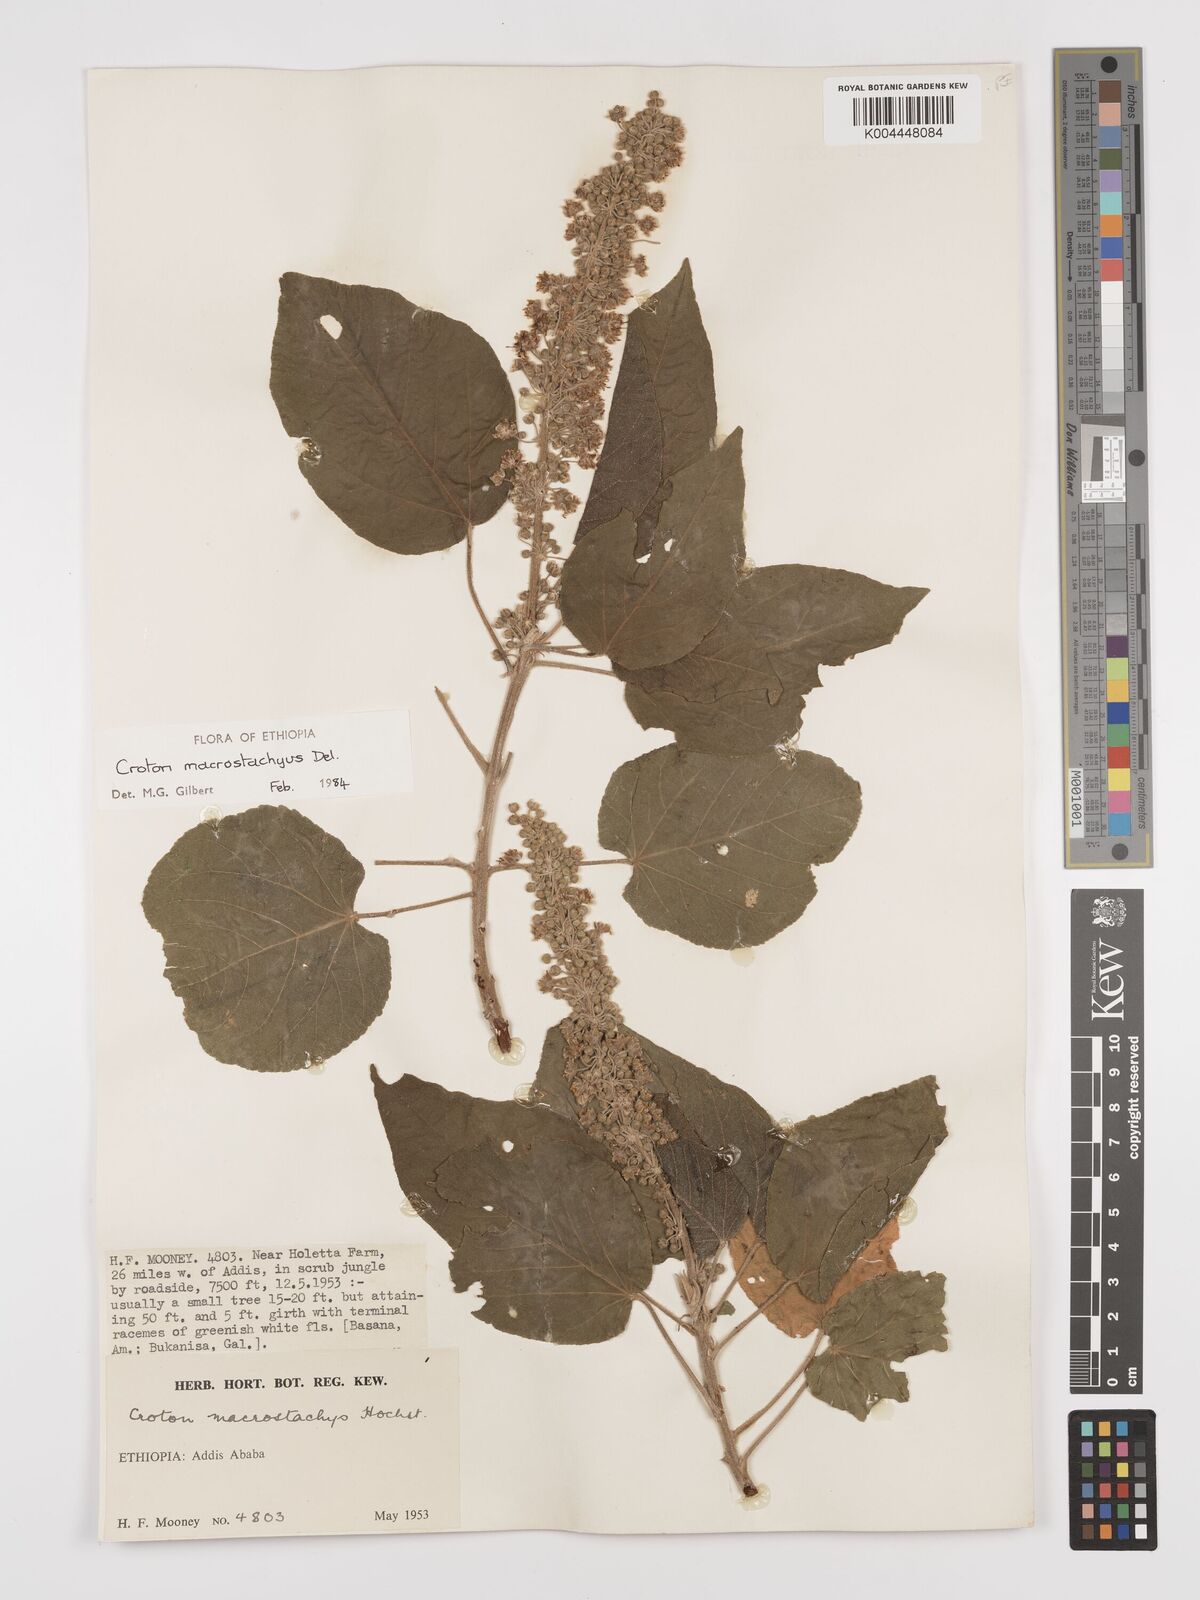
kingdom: Plantae
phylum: Tracheophyta
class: Magnoliopsida
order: Malpighiales
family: Euphorbiaceae
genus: Croton
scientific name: Croton macrostachyus
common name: Mutundu
